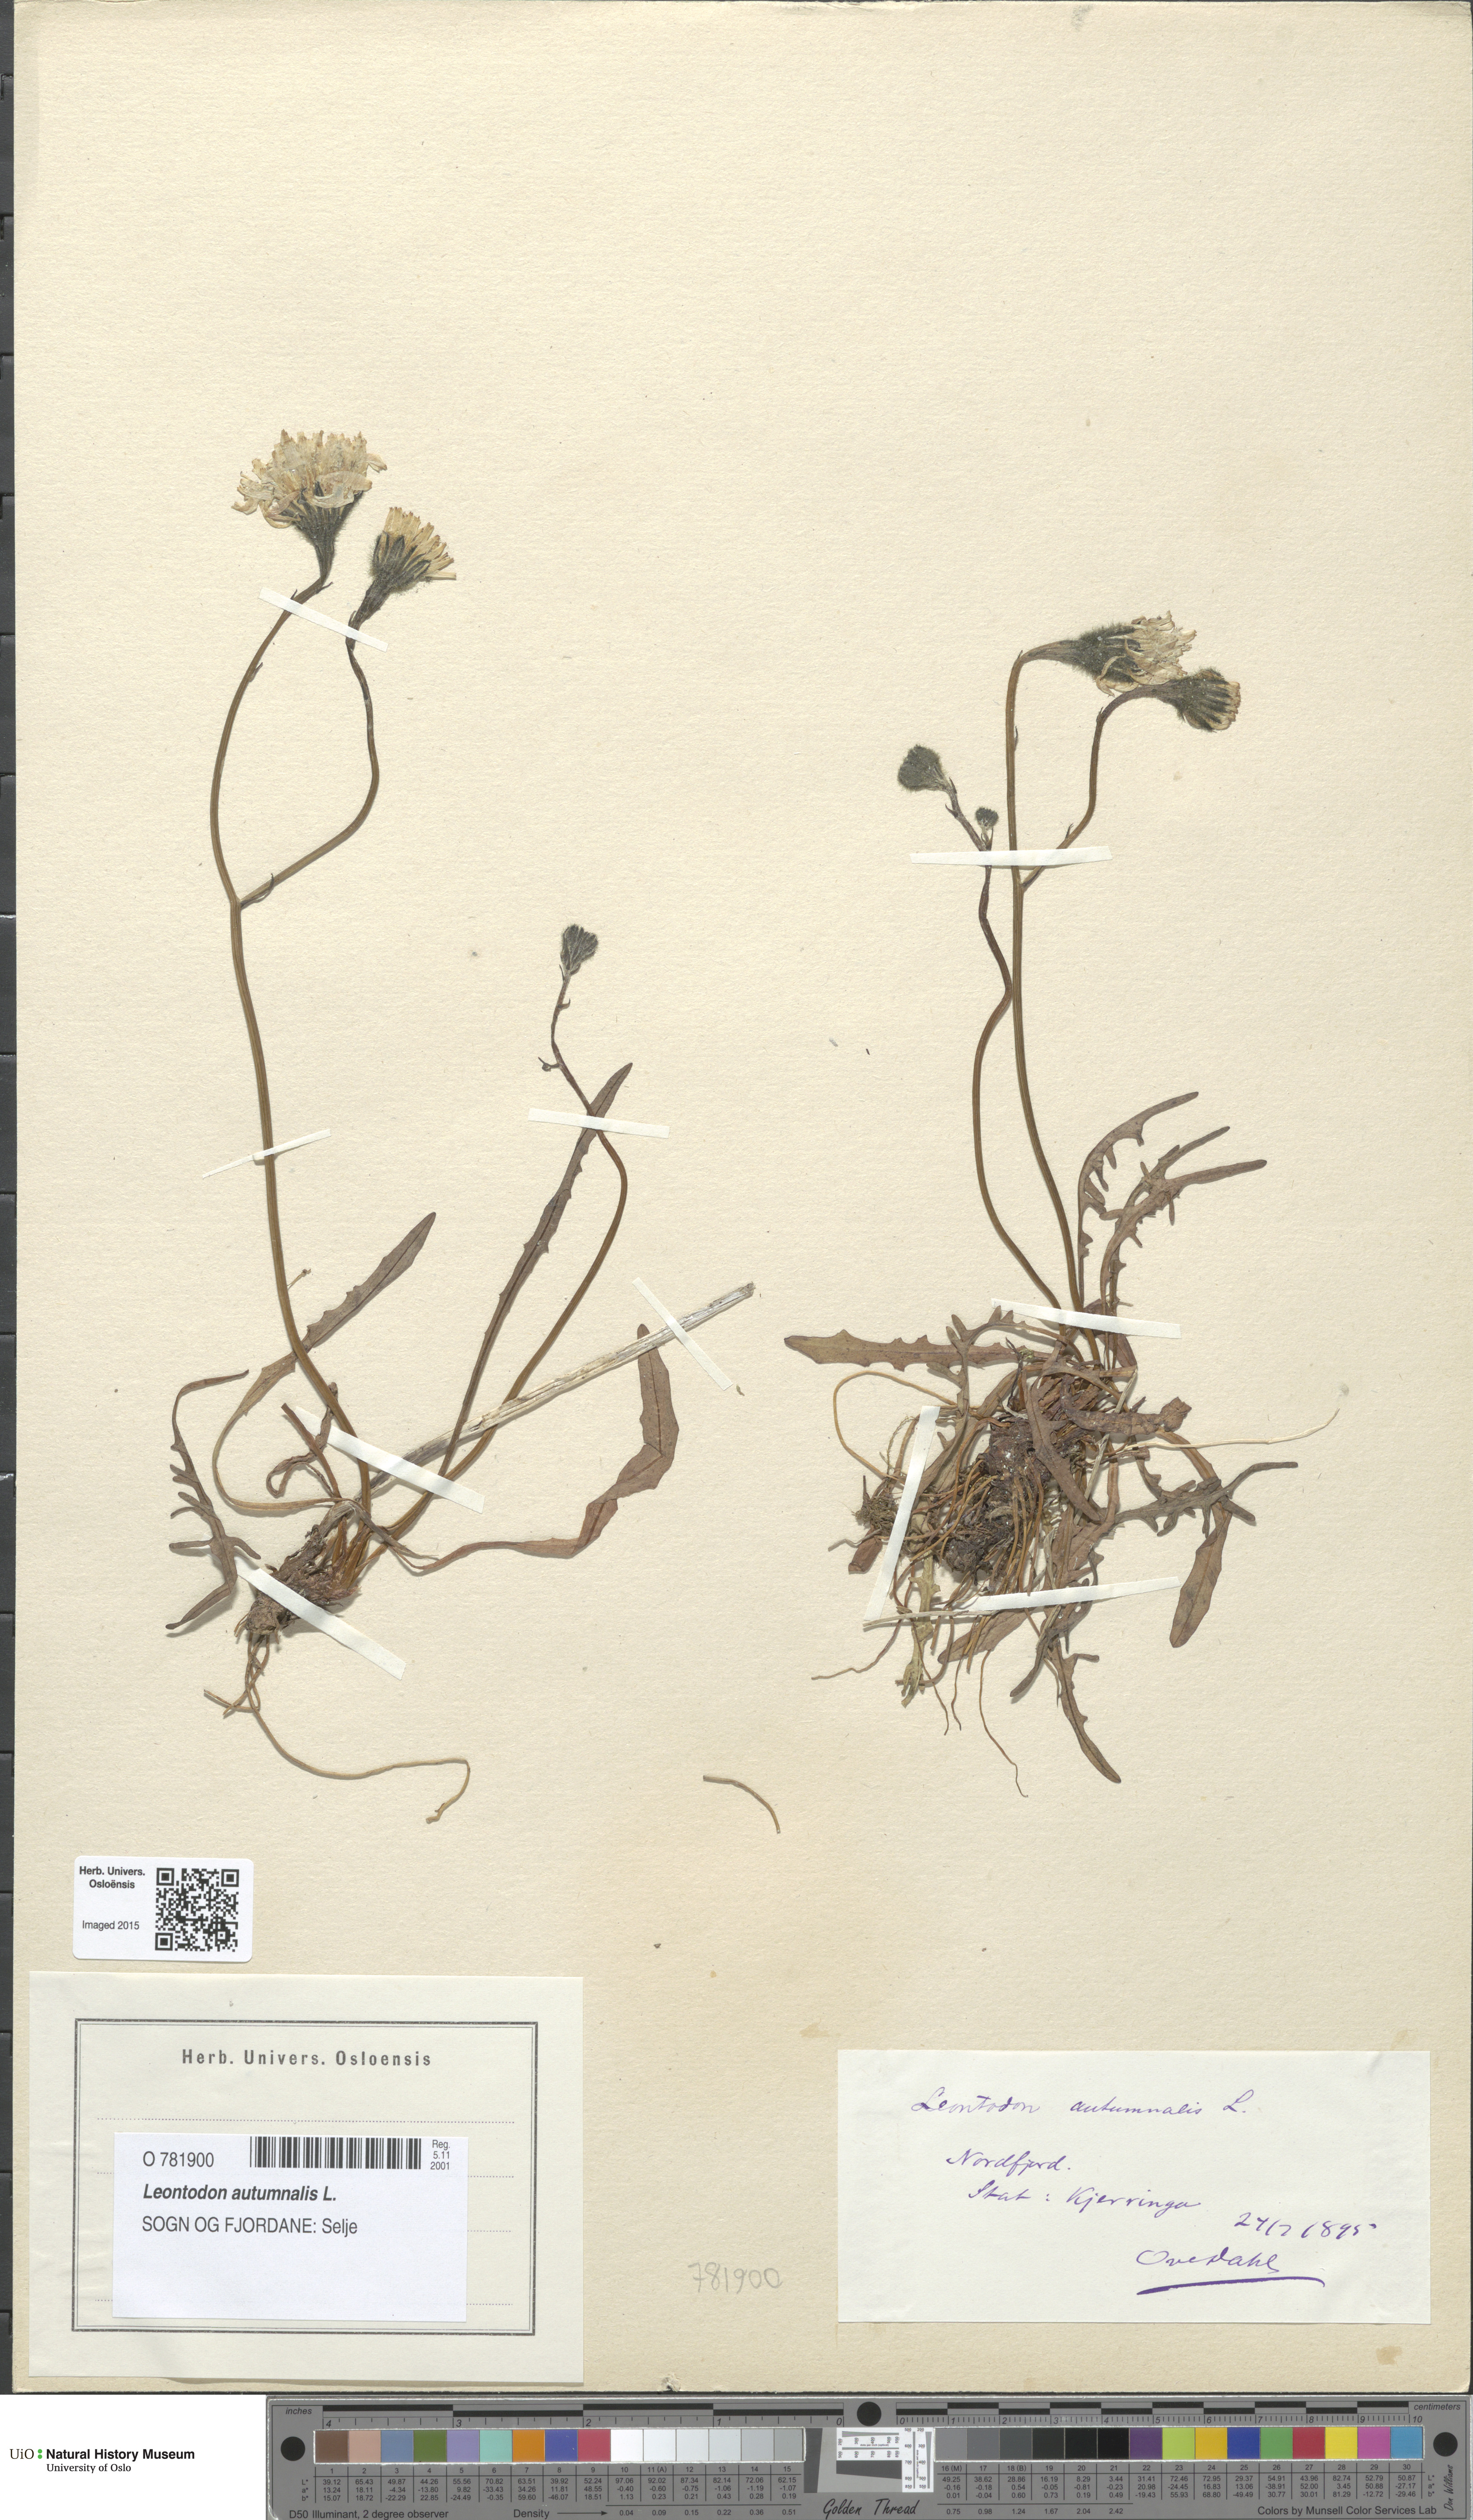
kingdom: Plantae
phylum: Tracheophyta
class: Magnoliopsida
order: Asterales
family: Asteraceae
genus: Scorzoneroides
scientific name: Scorzoneroides autumnalis
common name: Autumn hawkbit
